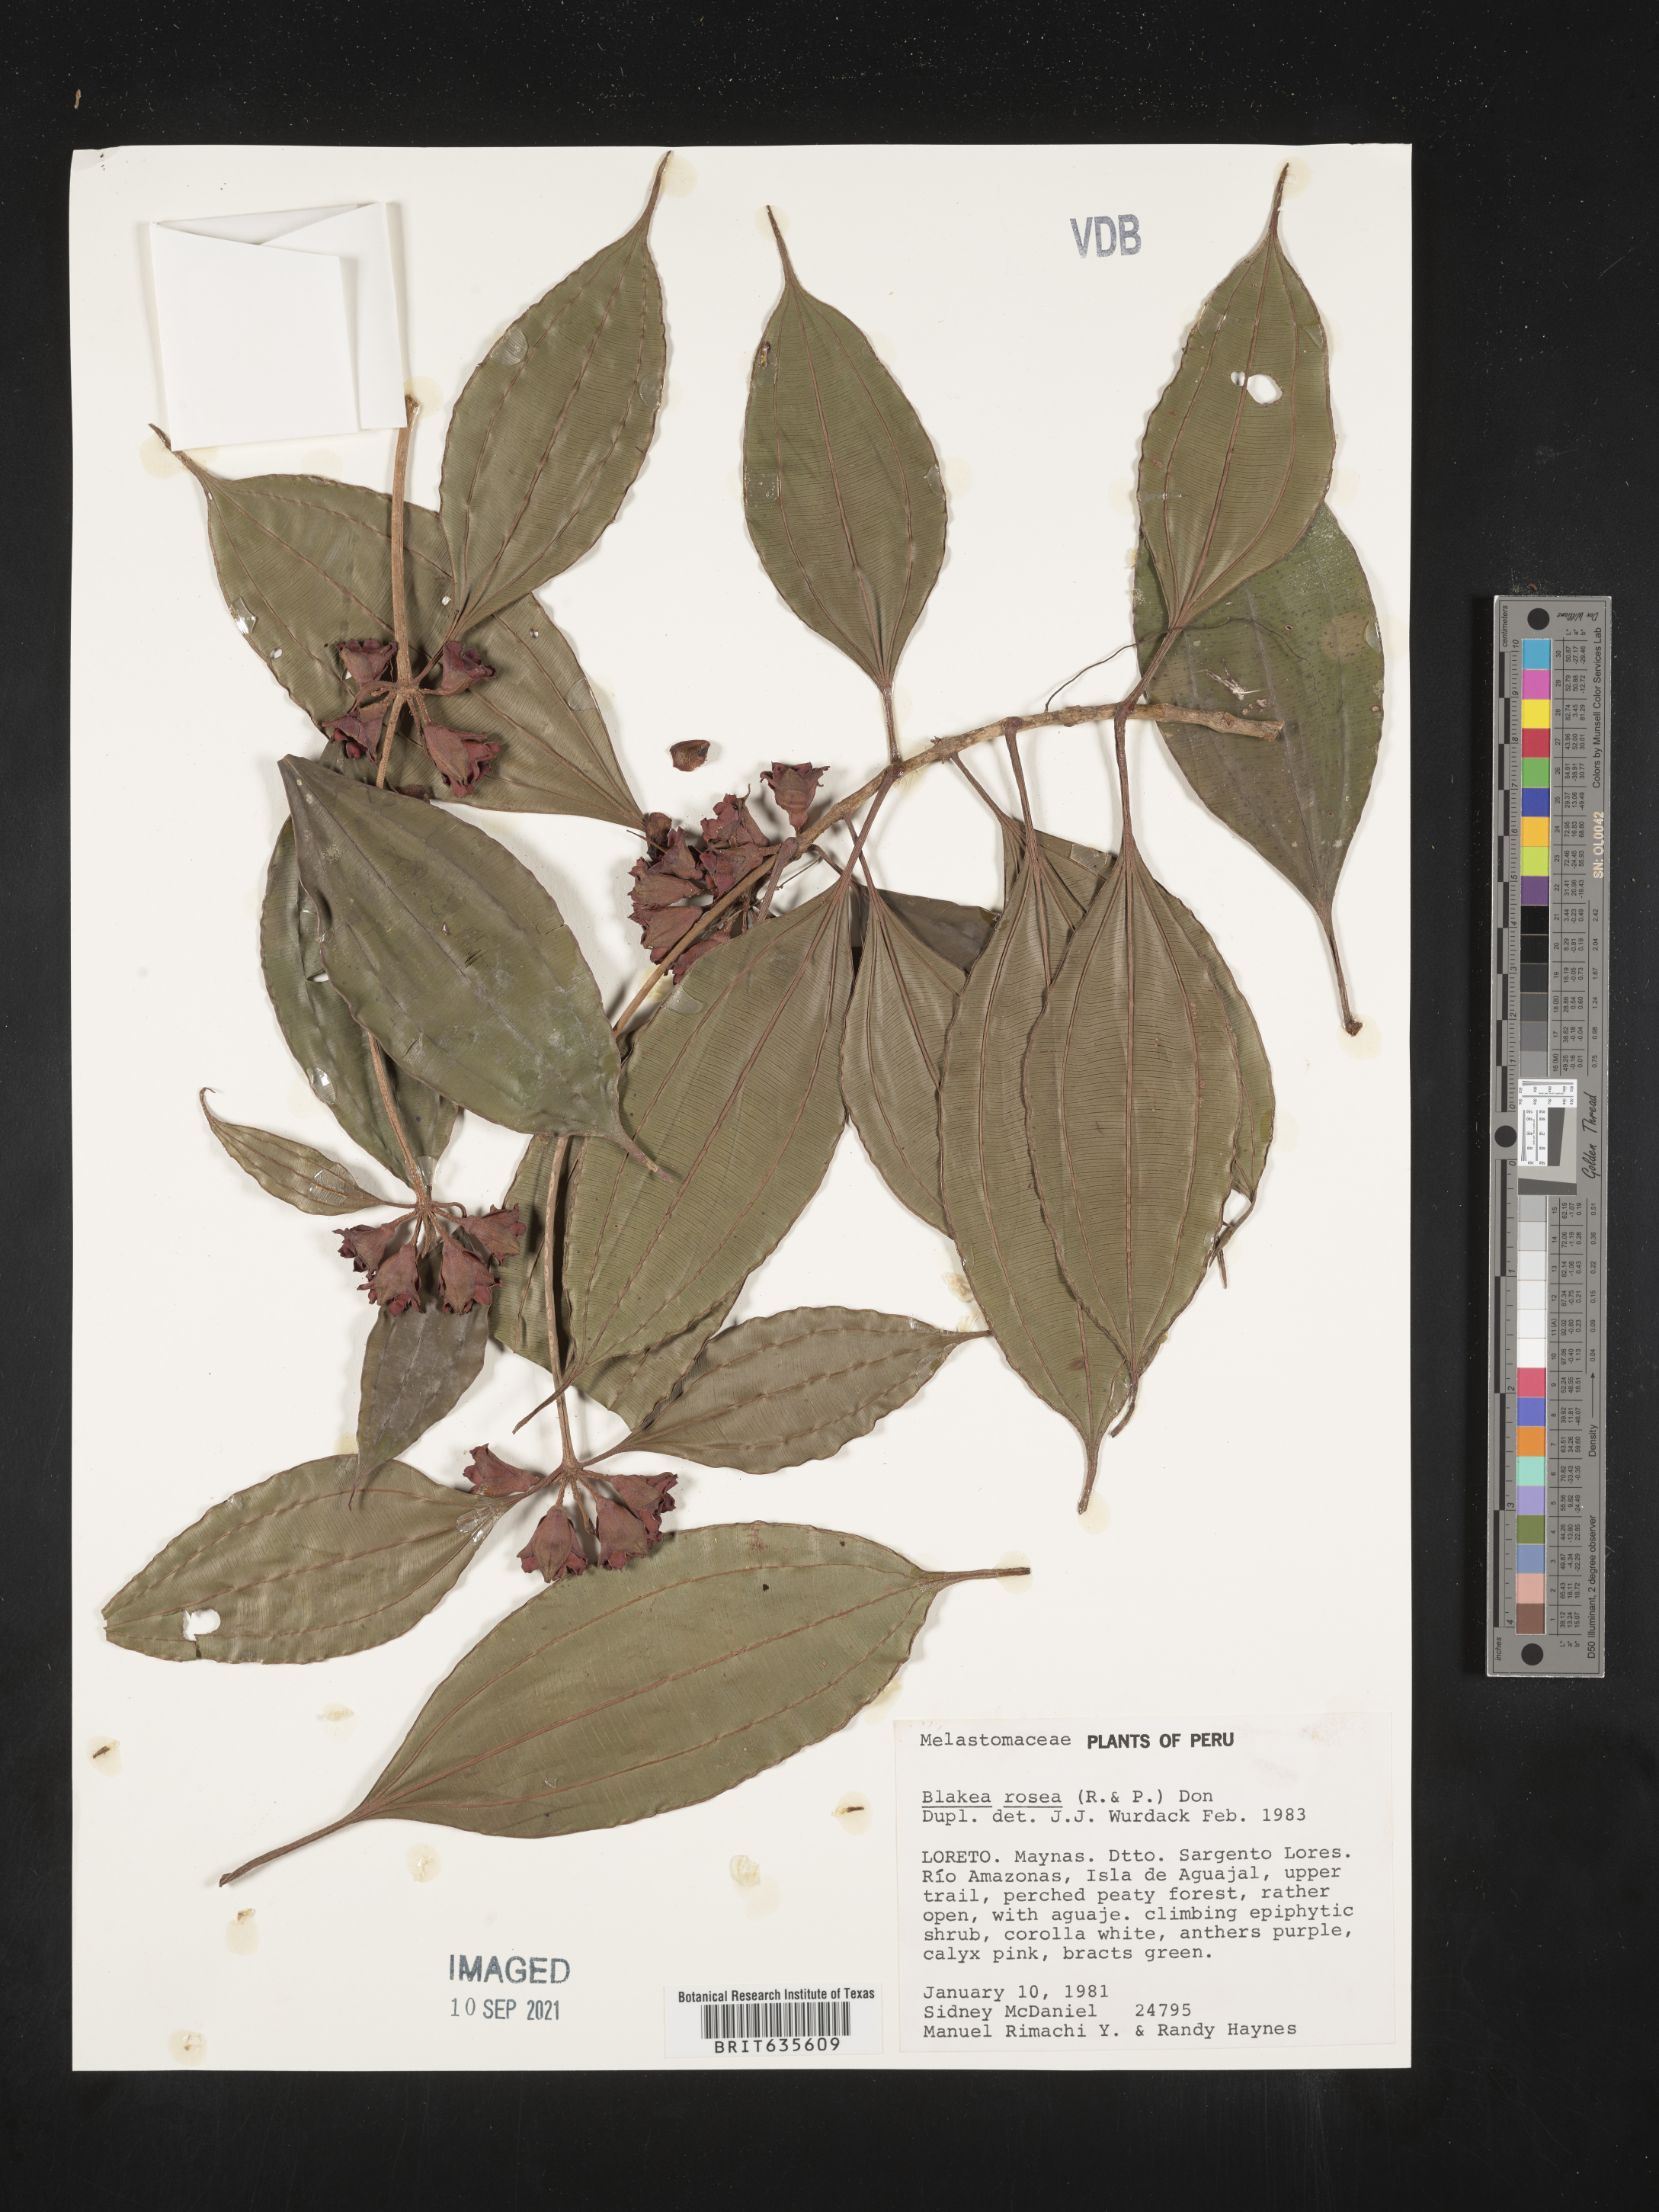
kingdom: Plantae
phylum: Tracheophyta
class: Magnoliopsida
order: Myrtales
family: Melastomataceae
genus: Blakea
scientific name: Blakea
